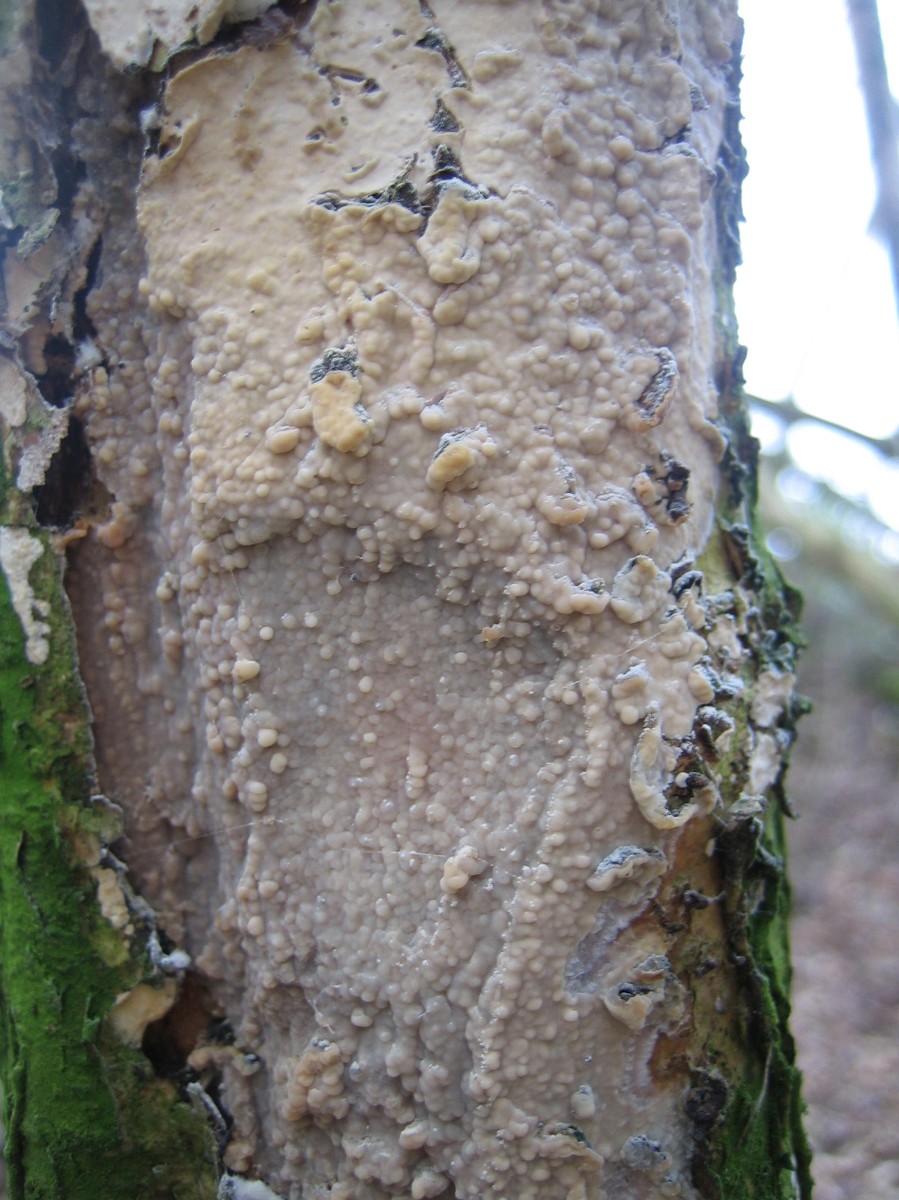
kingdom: Fungi
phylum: Basidiomycota
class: Agaricomycetes
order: Agaricales
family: Radulomycetaceae
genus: Radulomyces
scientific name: Radulomyces confluens
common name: glat naftalinskind
